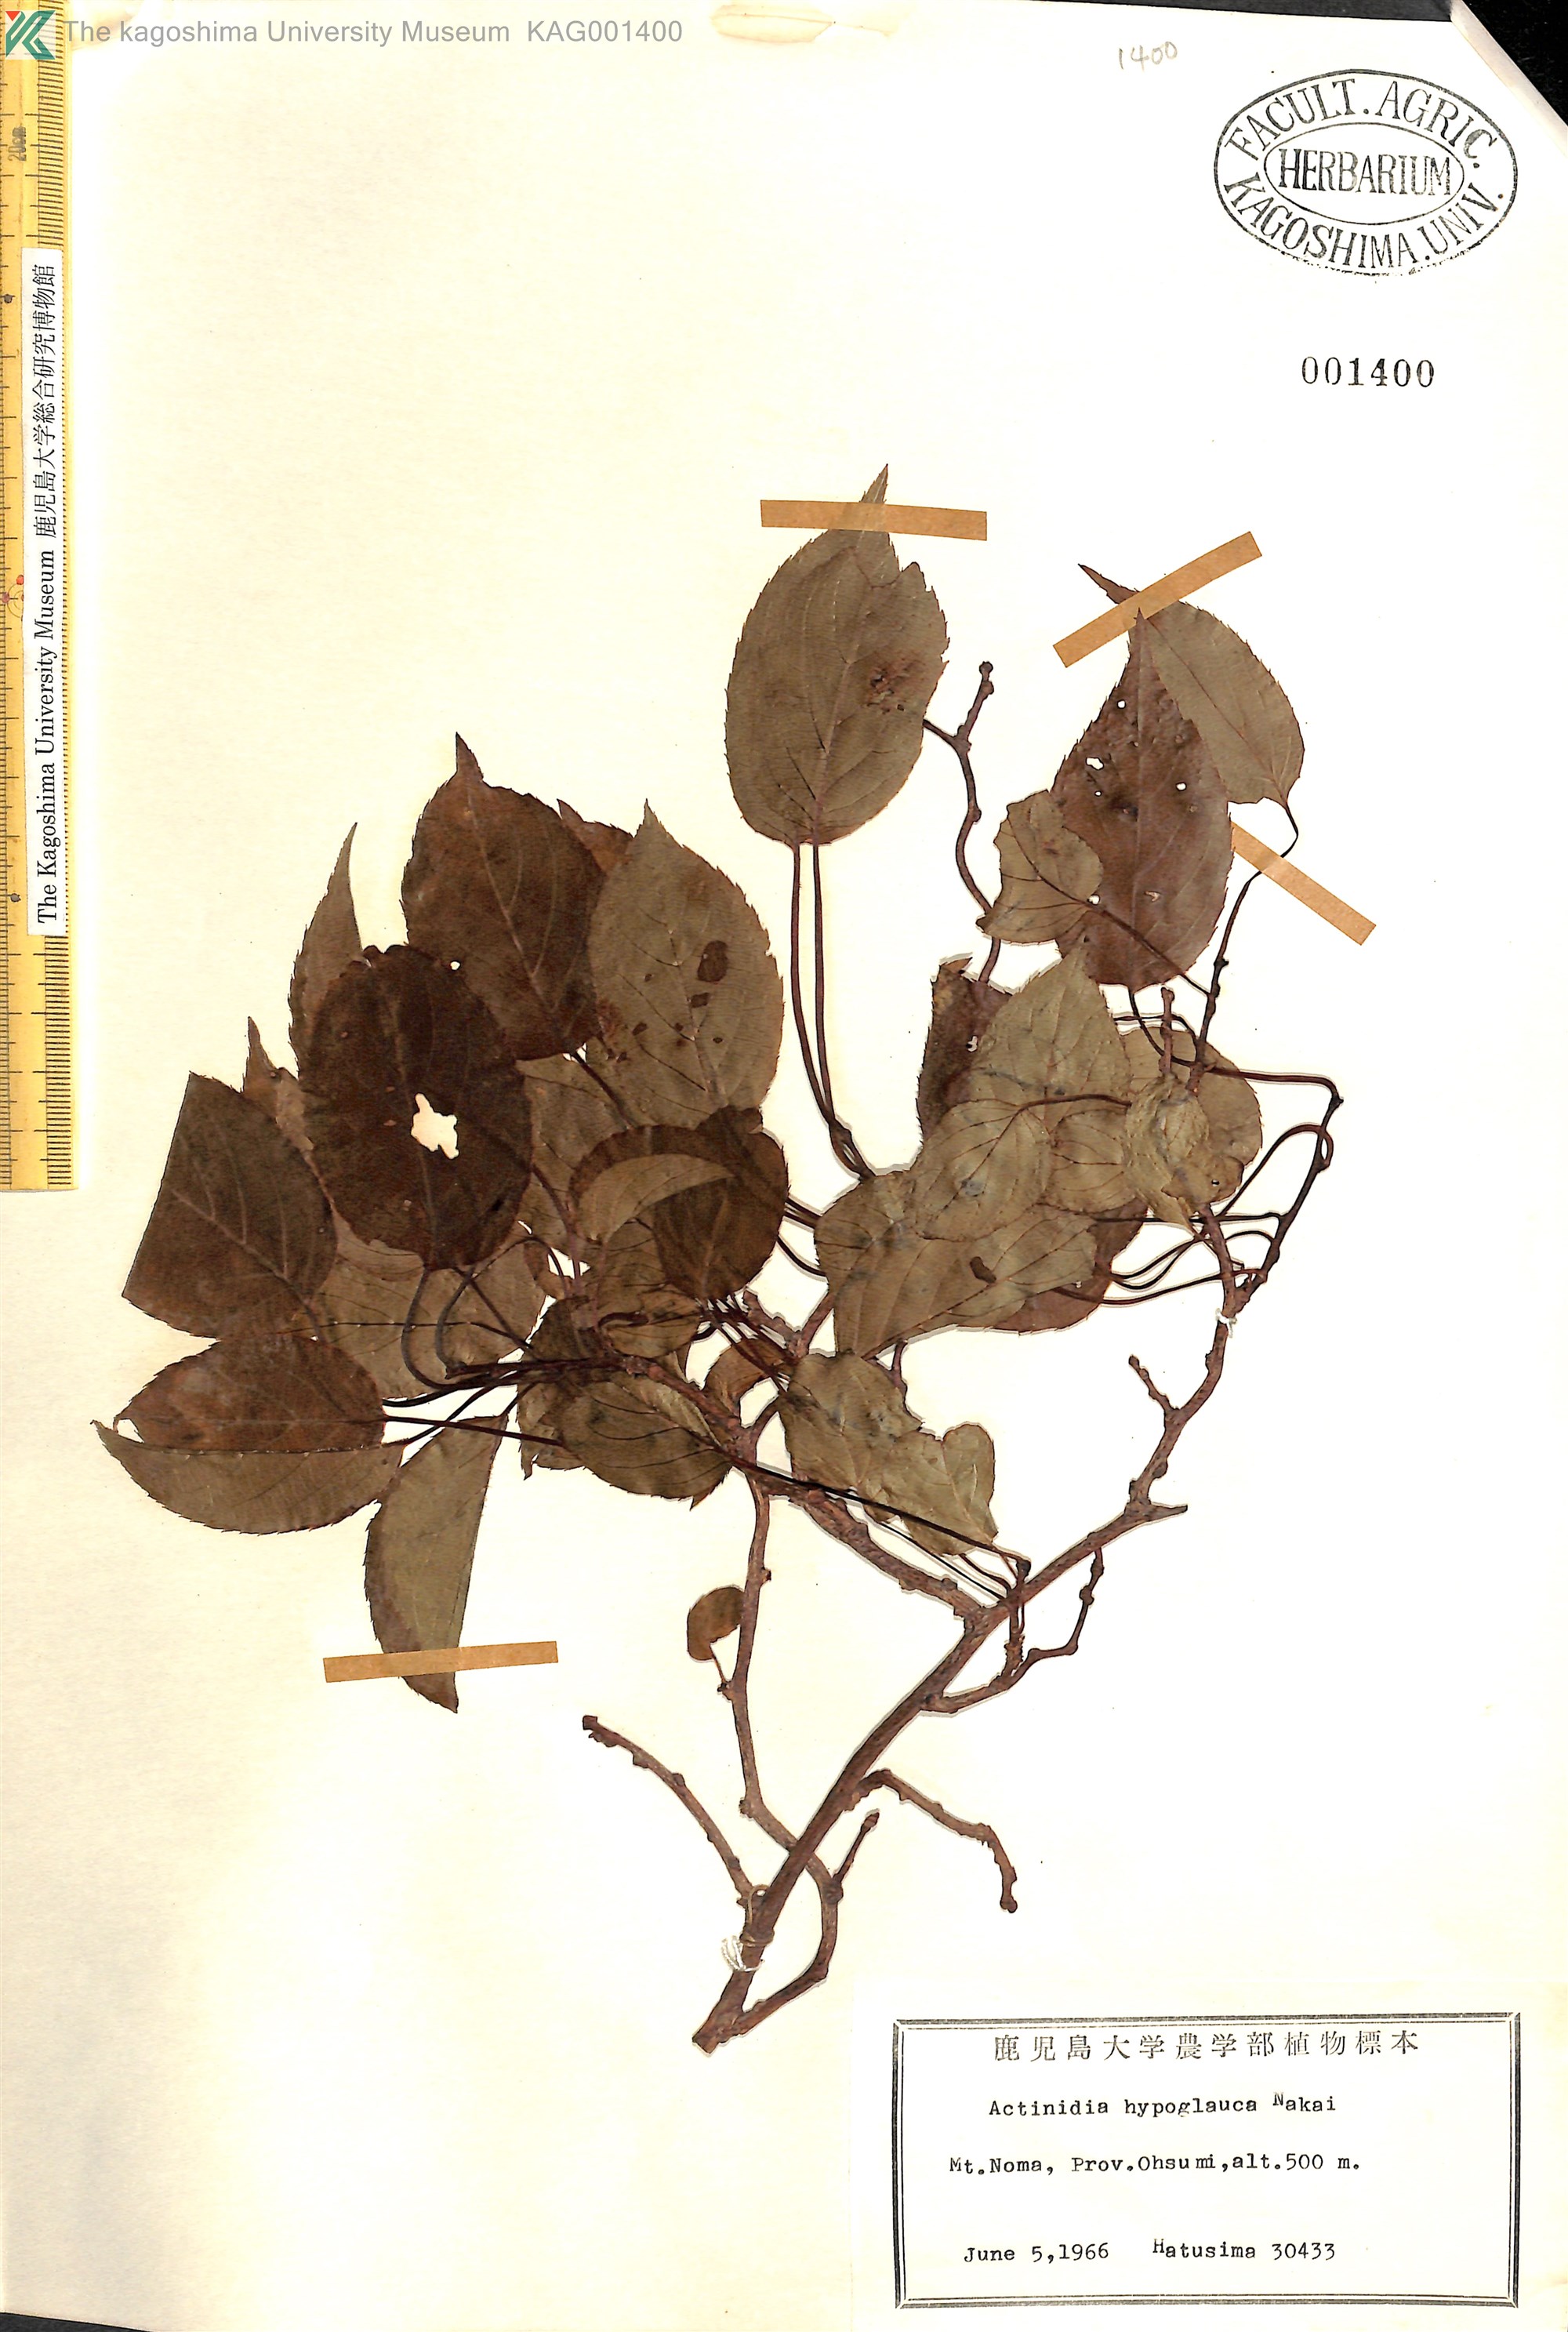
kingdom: Plantae
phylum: Tracheophyta
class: Magnoliopsida
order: Ericales
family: Actinidiaceae
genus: Actinidia
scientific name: Actinidia arguta
